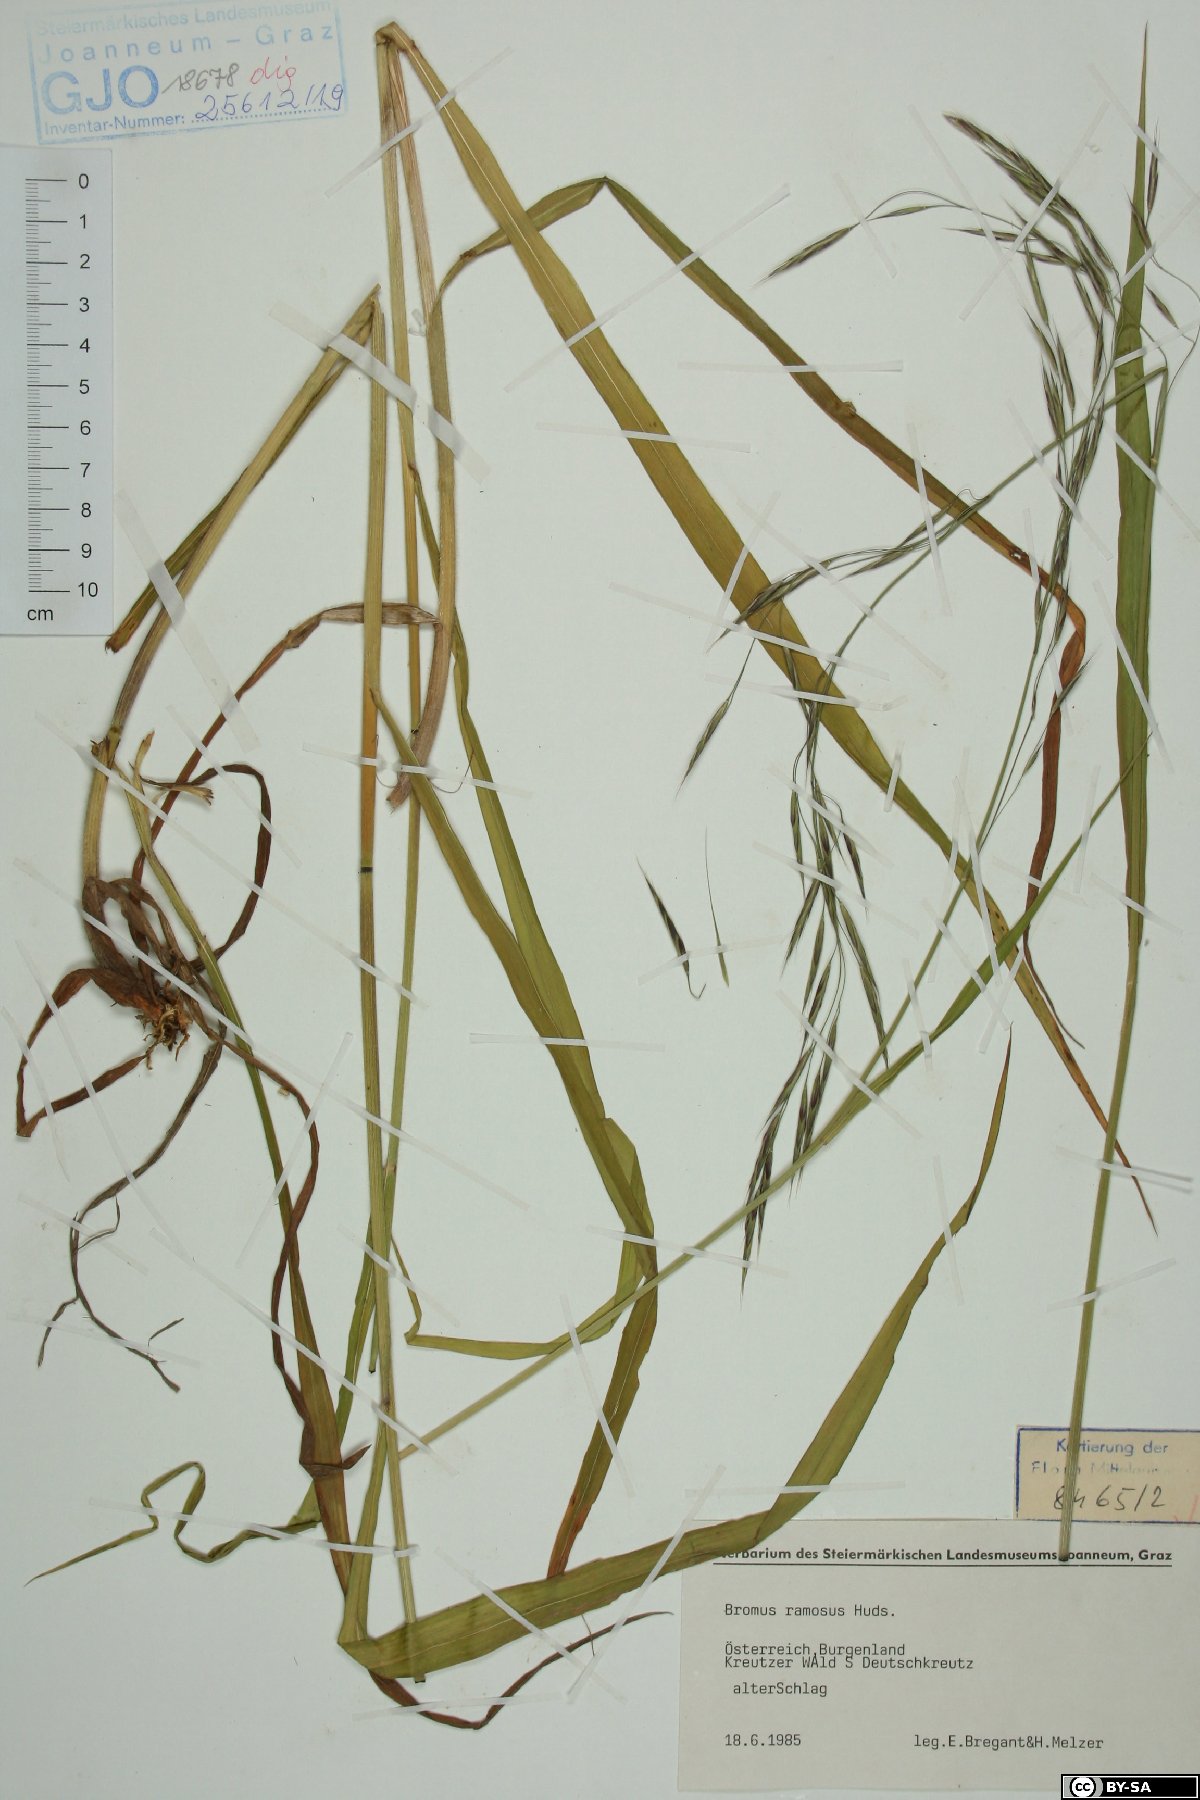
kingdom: Plantae
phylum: Tracheophyta
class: Liliopsida
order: Poales
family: Poaceae
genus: Bromus
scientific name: Bromus ramosus
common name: Hairy brome
